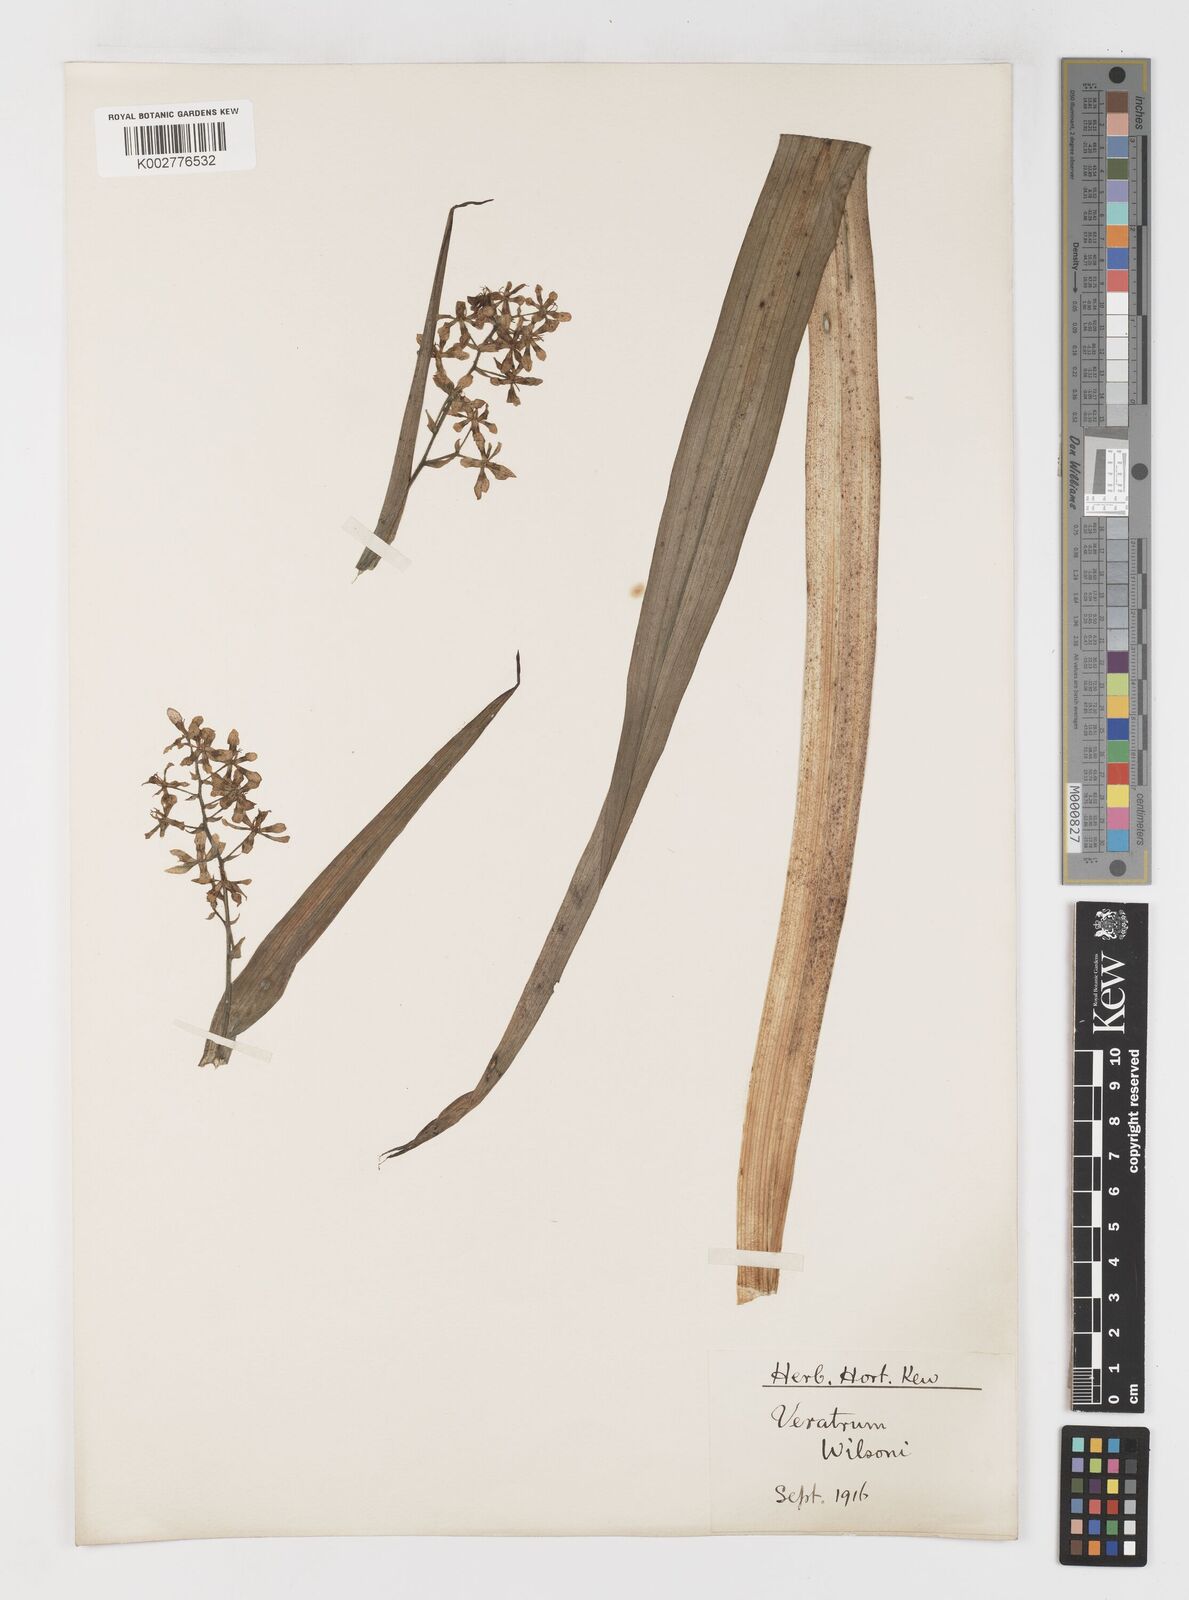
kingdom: Plantae
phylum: Tracheophyta
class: Liliopsida
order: Liliales
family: Melanthiaceae
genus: Veratrum
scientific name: Veratrum mengtzeanum
